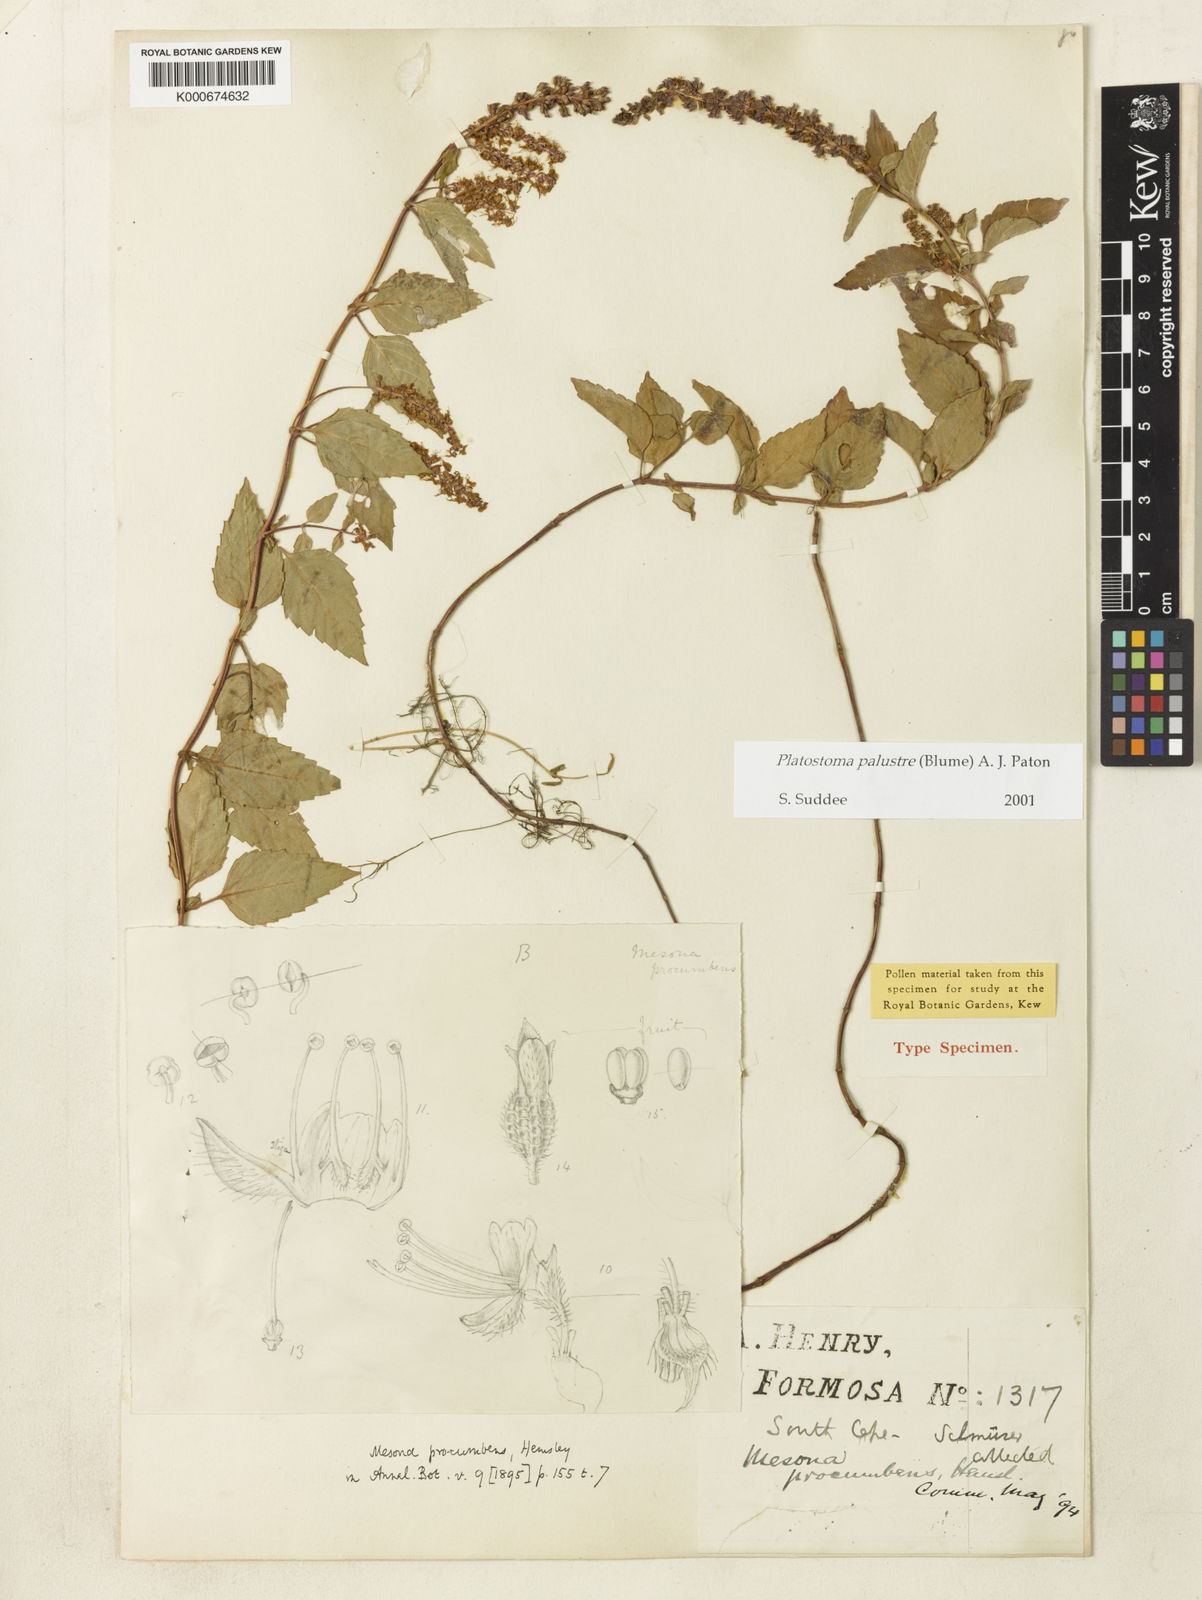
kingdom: Plantae
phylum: Tracheophyta
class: Magnoliopsida
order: Lamiales
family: Lamiaceae
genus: Platostoma
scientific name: Platostoma palustre
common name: Black cincau
